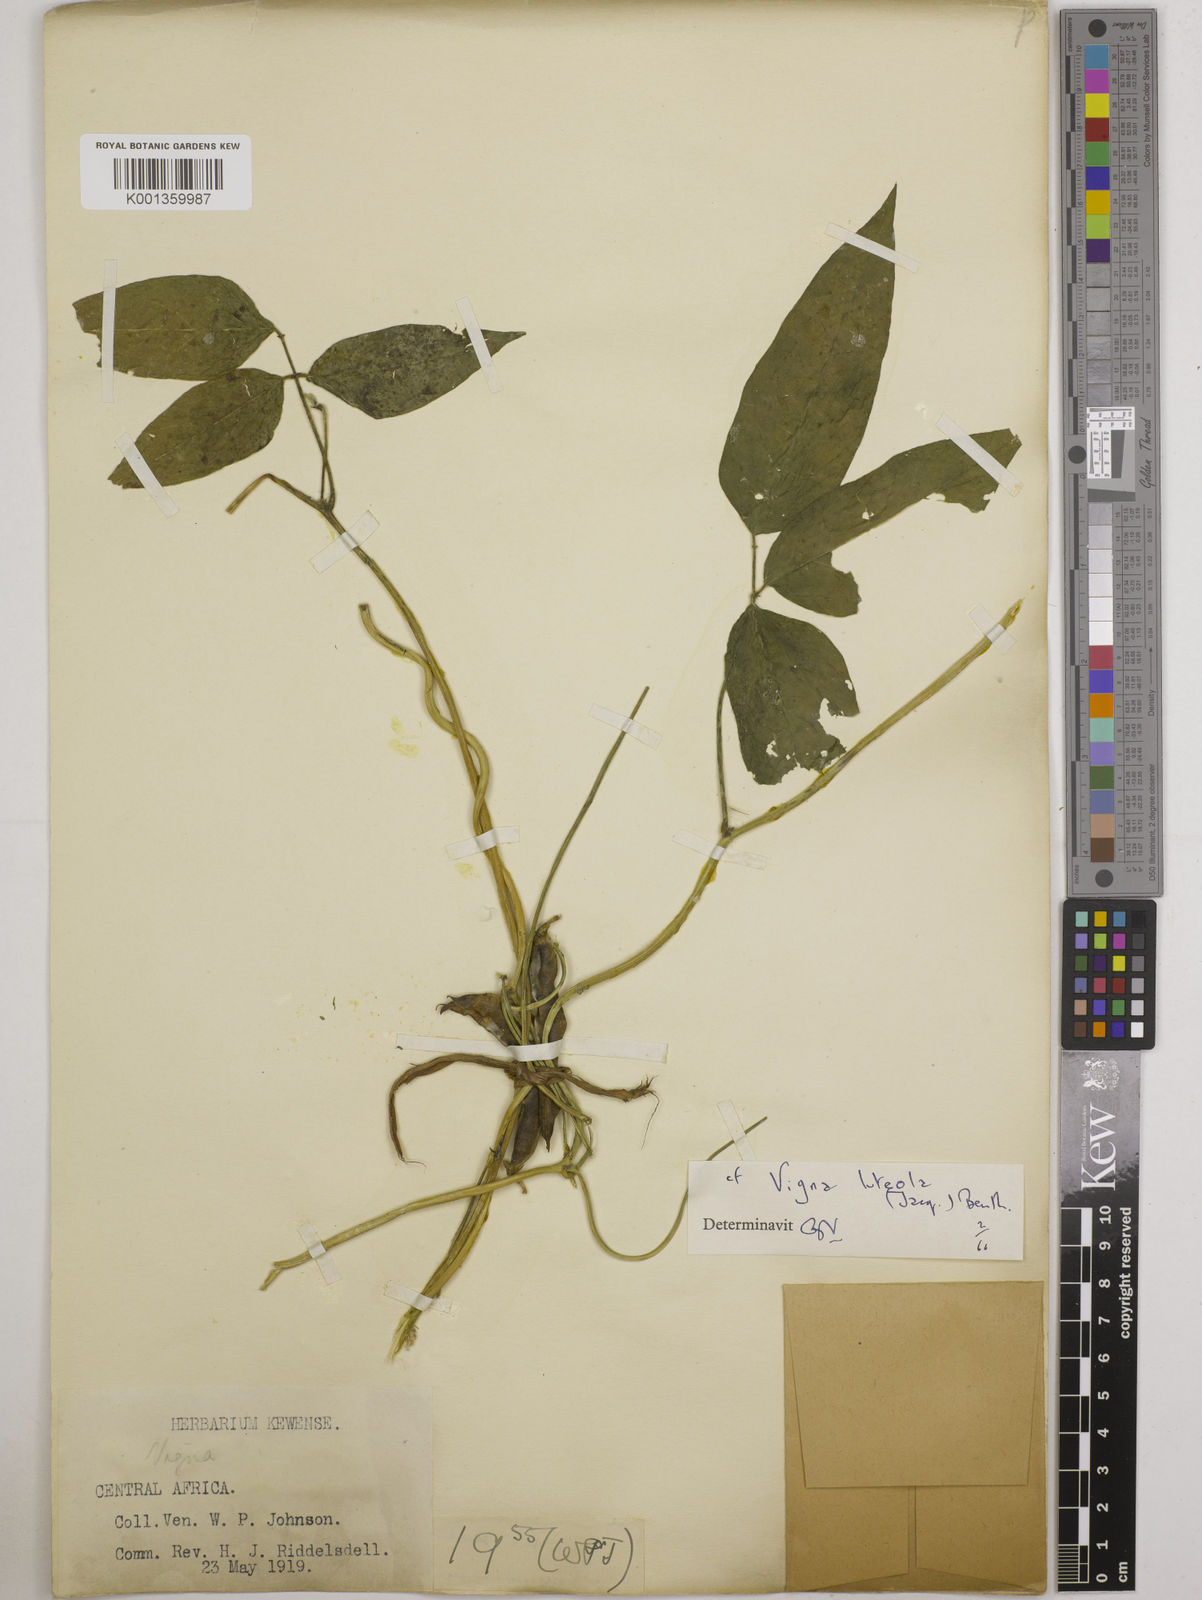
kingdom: Plantae
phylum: Tracheophyta
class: Magnoliopsida
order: Fabales
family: Fabaceae
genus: Vigna
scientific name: Vigna luteola
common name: Hairypod cowpea
